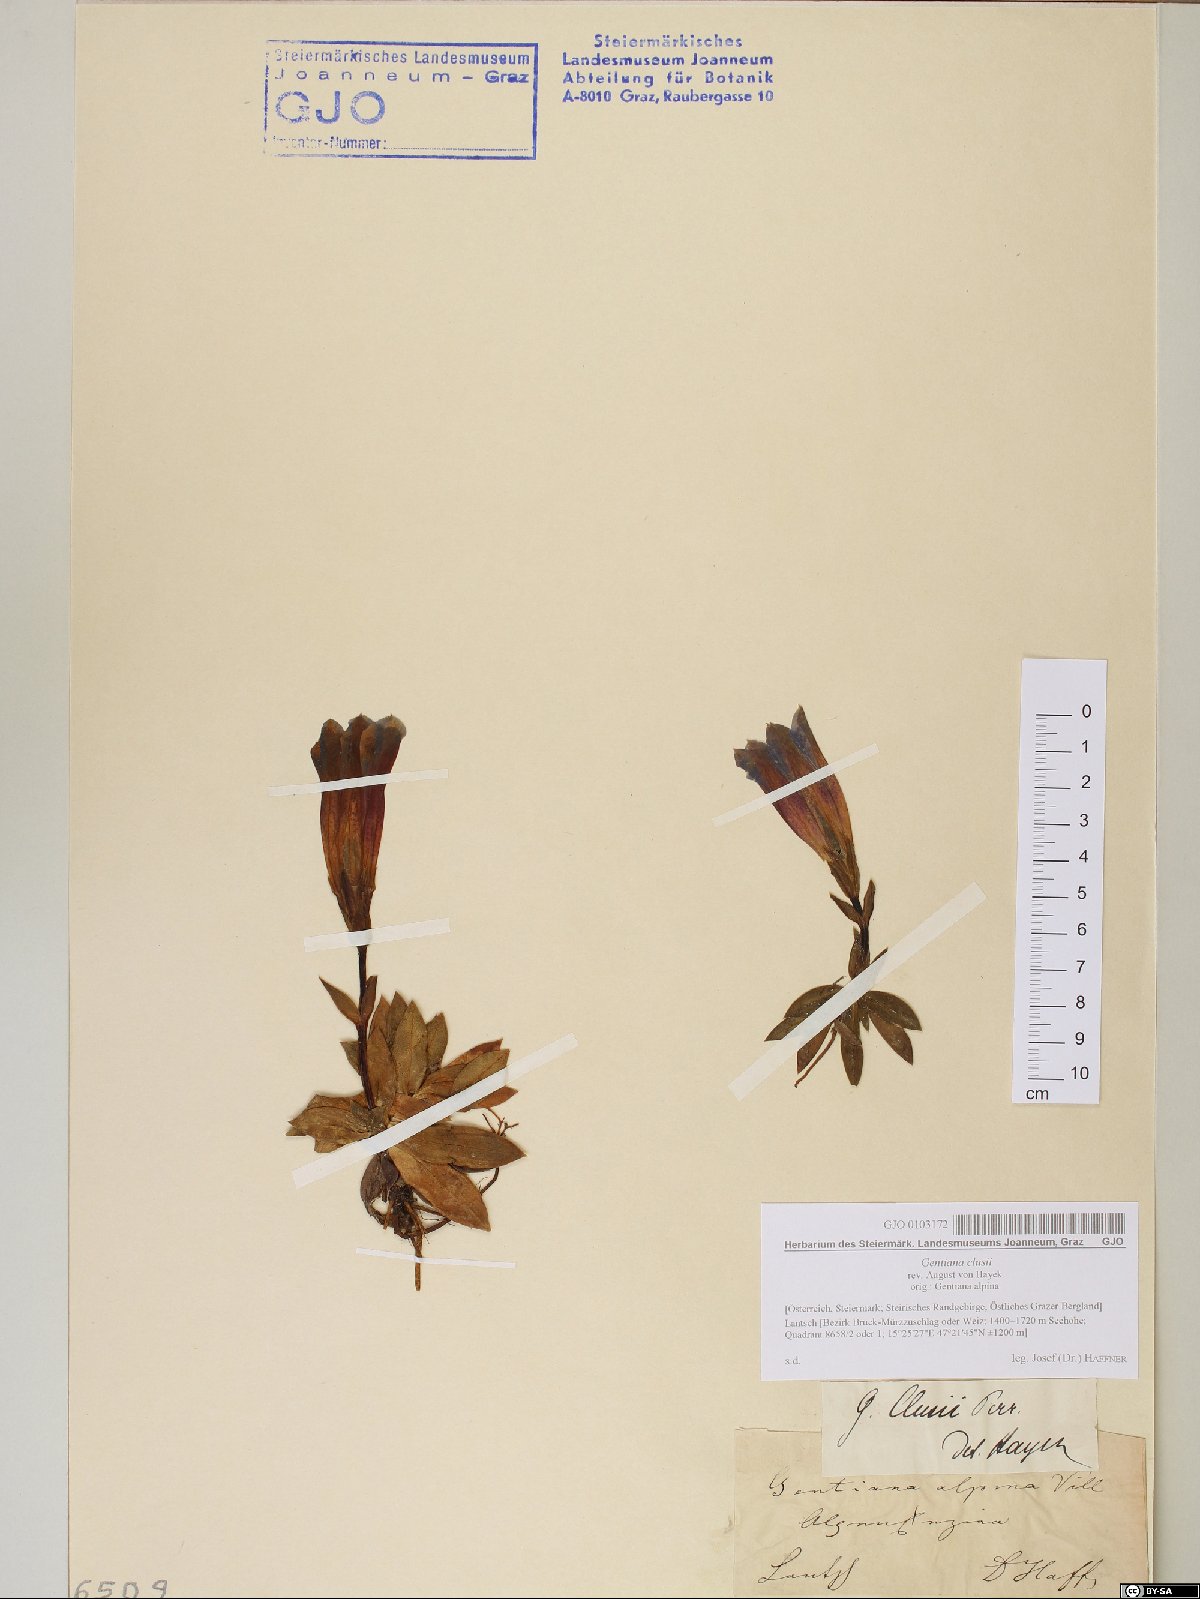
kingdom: Plantae
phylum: Tracheophyta
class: Magnoliopsida
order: Gentianales
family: Gentianaceae
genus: Gentiana
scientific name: Gentiana clusii
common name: Trumpet gentian
